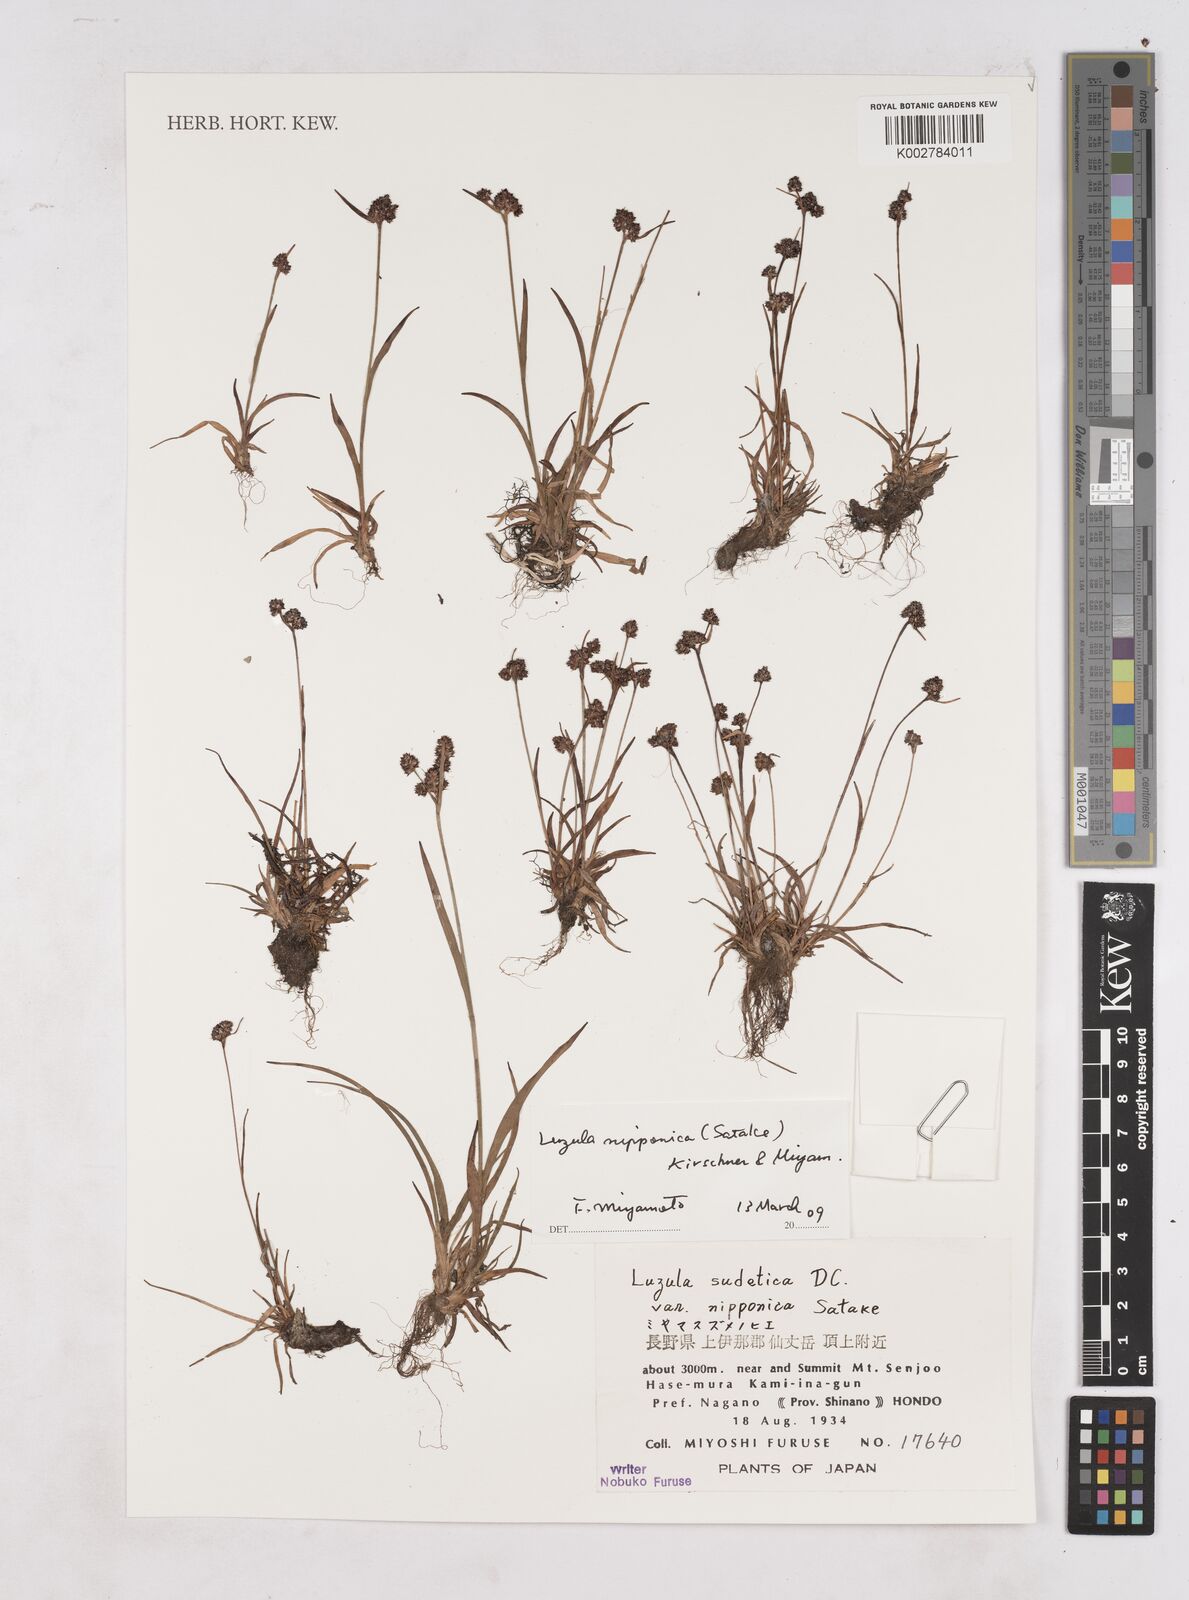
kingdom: Plantae
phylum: Tracheophyta
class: Liliopsida
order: Poales
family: Juncaceae
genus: Luzula
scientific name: Luzula nipponica
